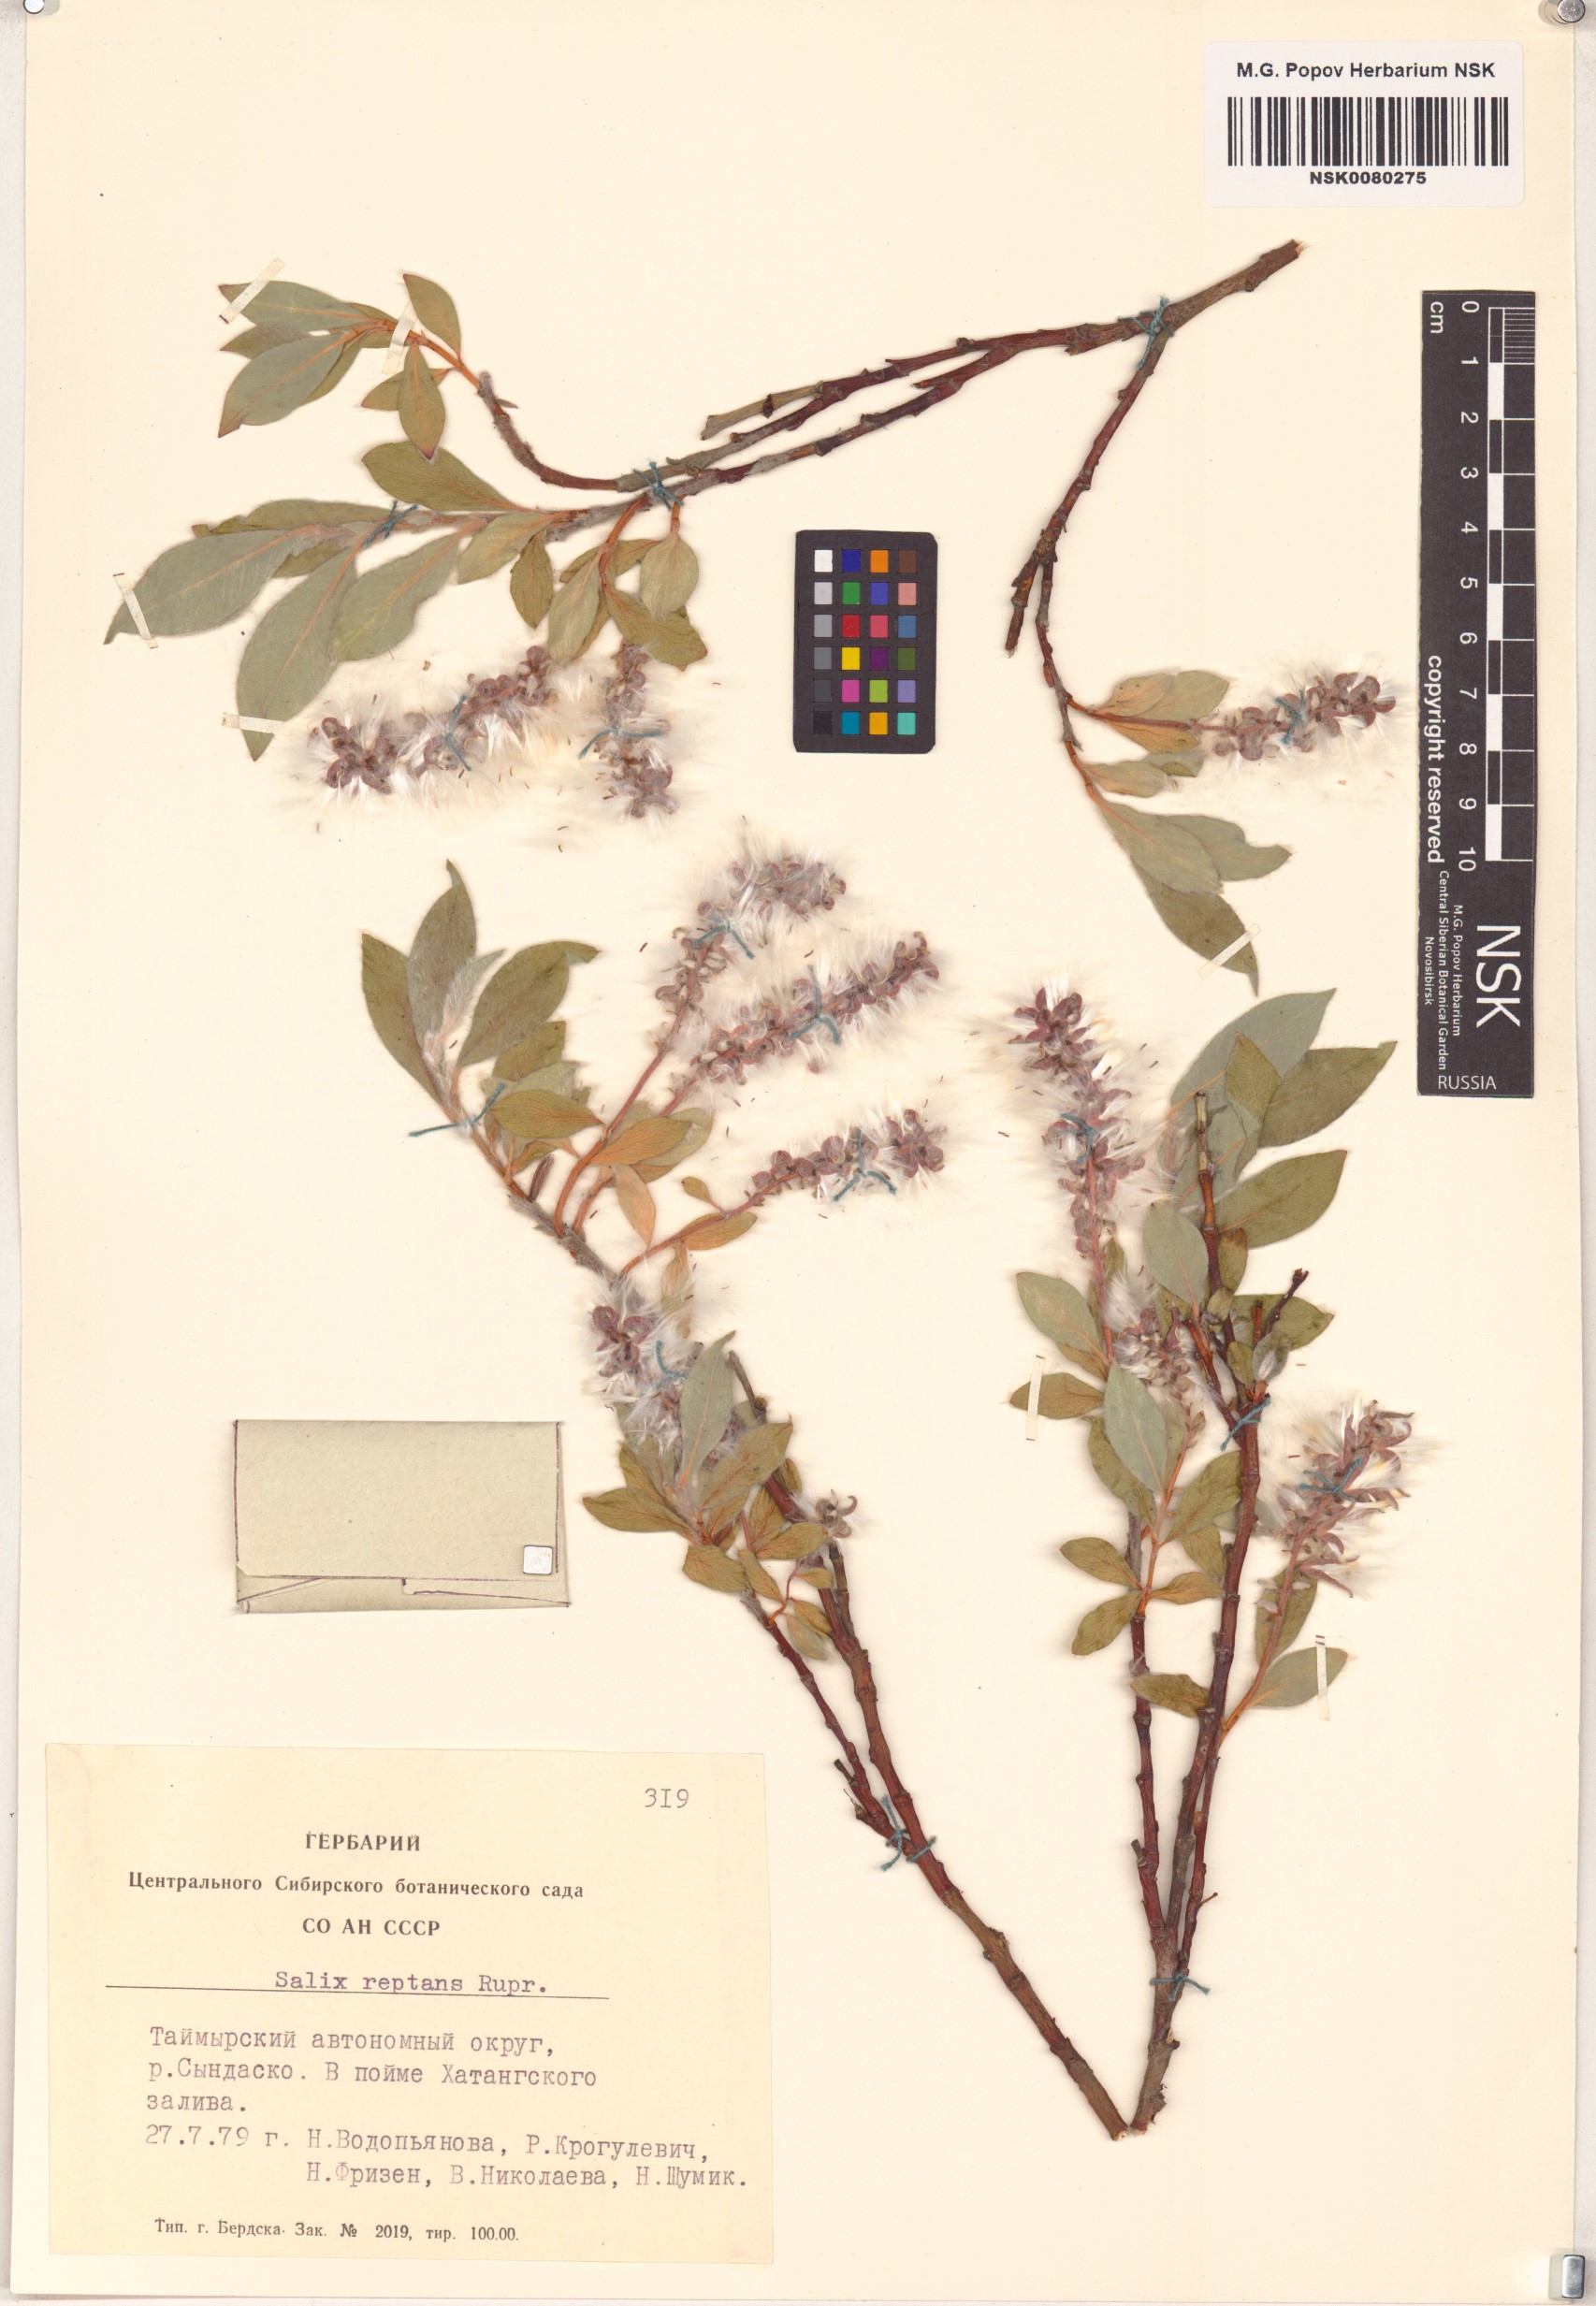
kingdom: Plantae
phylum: Tracheophyta
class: Magnoliopsida
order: Malpighiales
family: Salicaceae
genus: Salix
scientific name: Salix reptans
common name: Arctic creeping willow
